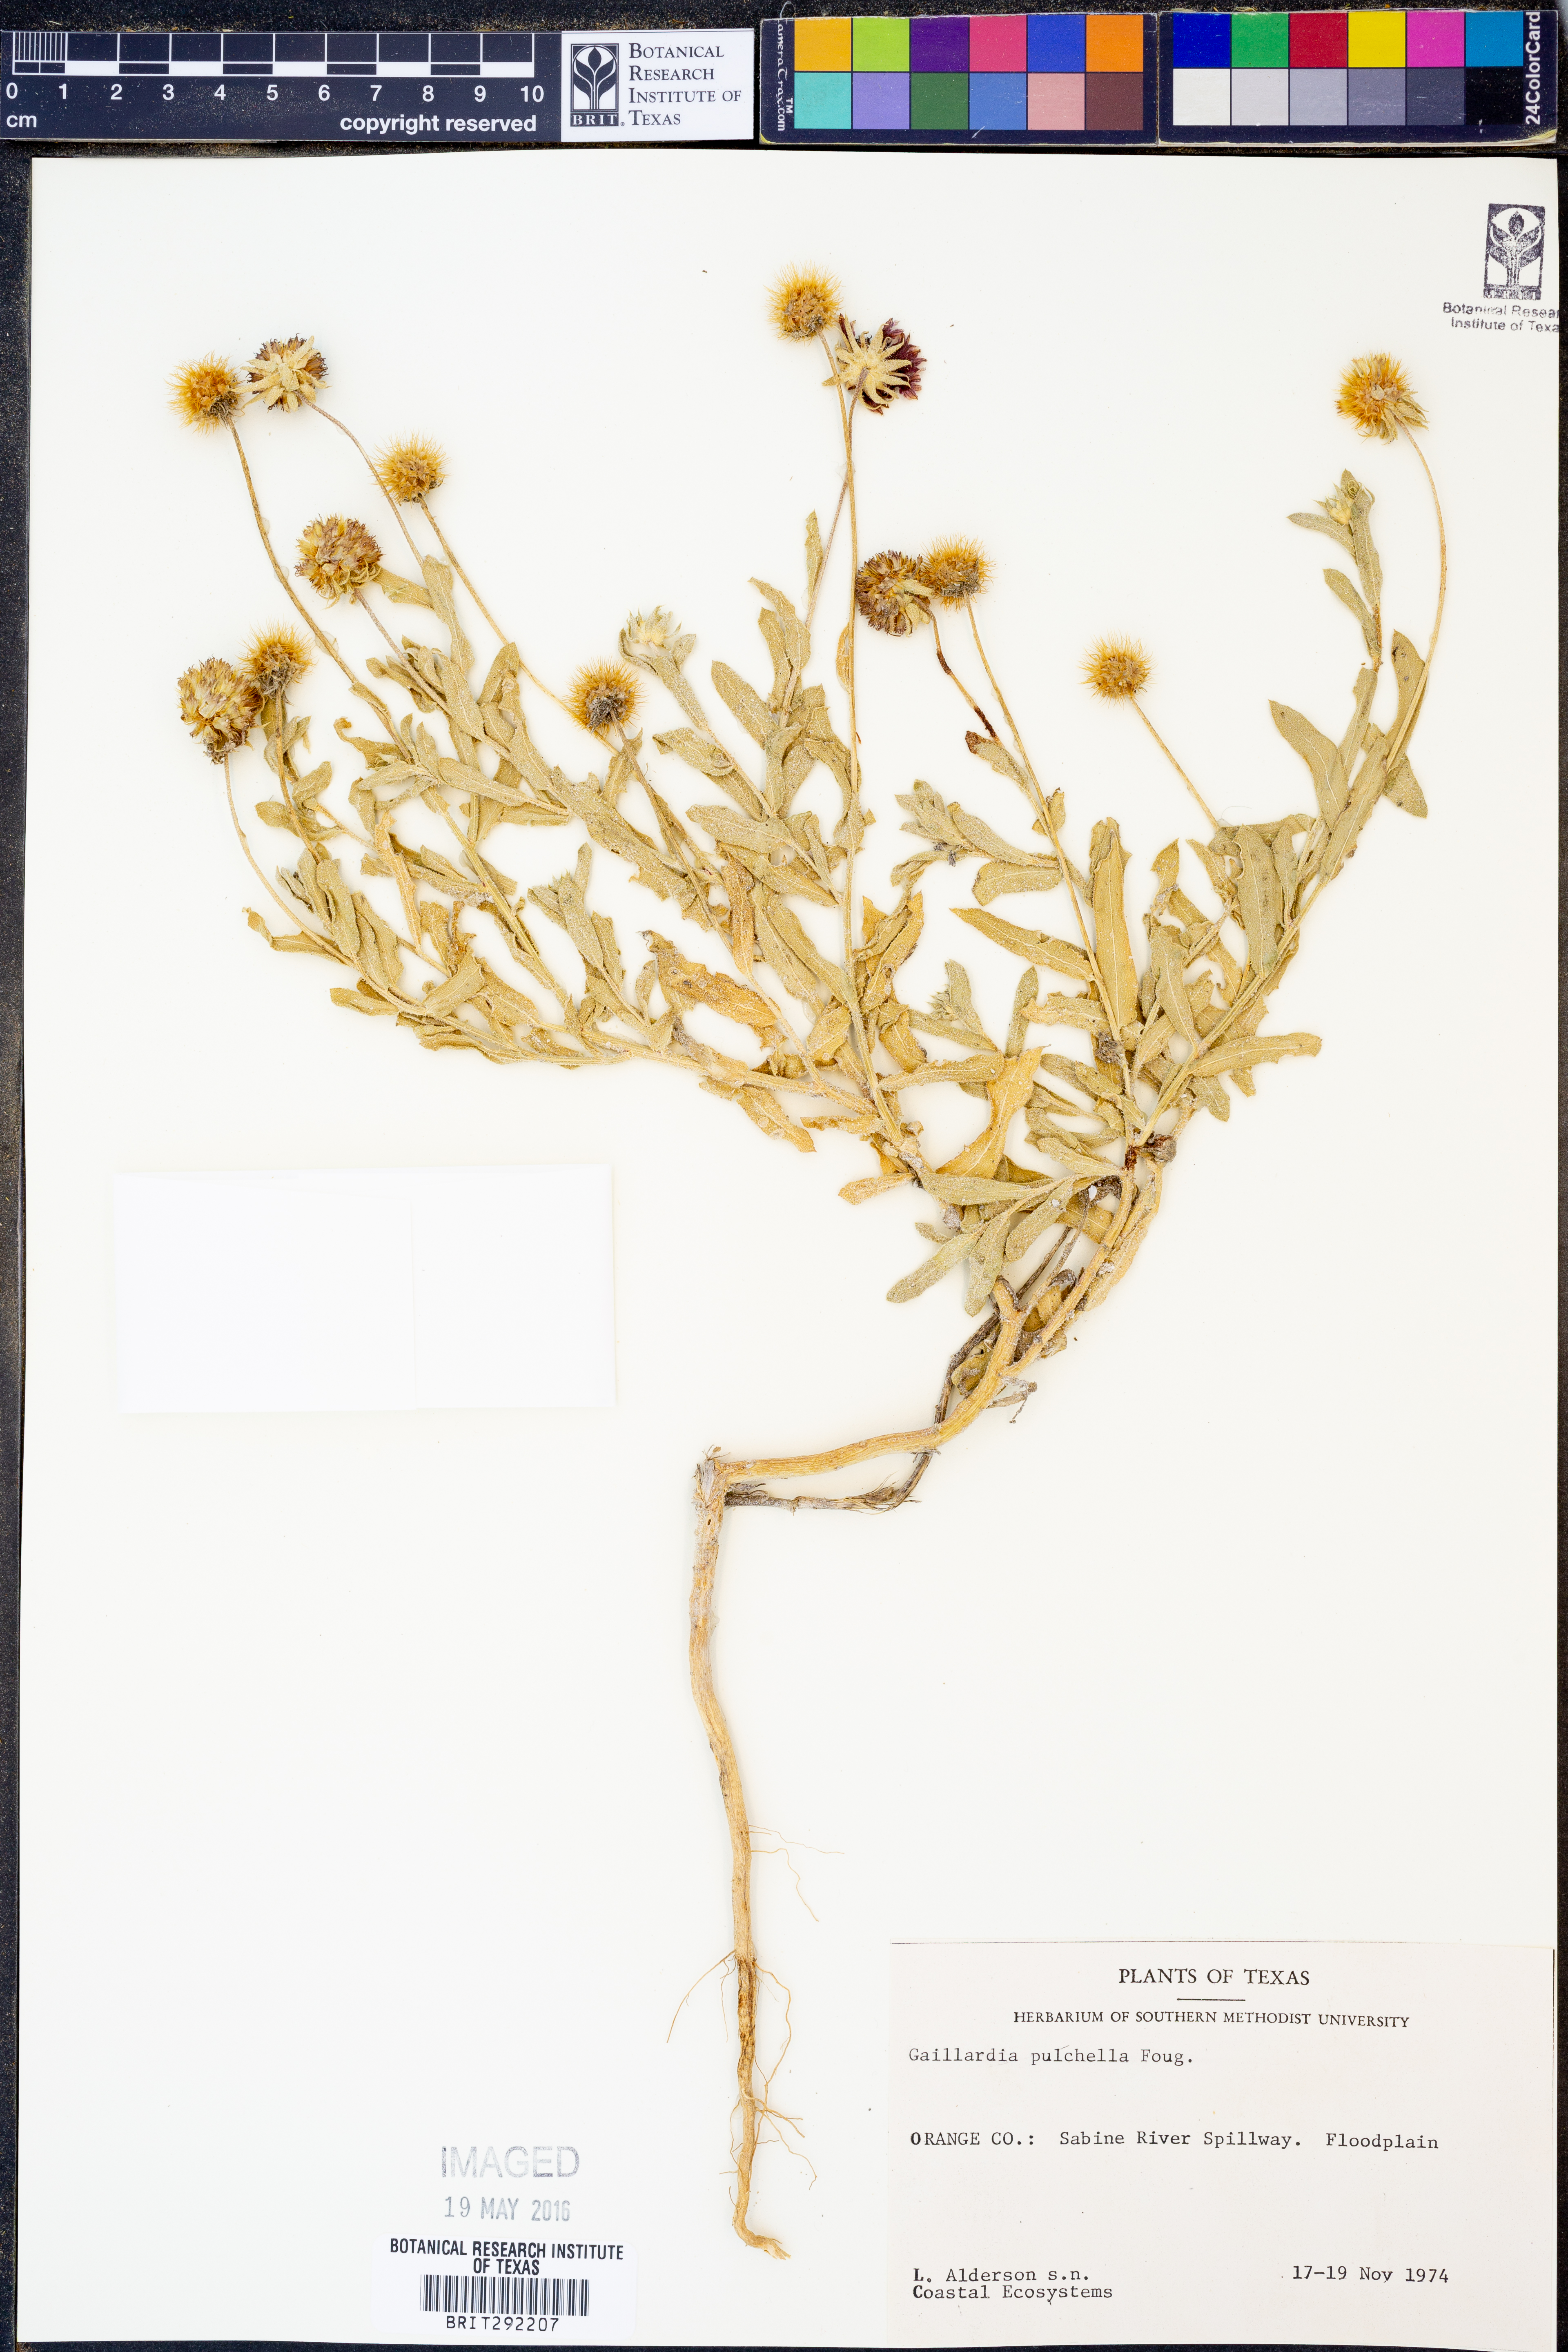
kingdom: Plantae
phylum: Tracheophyta
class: Magnoliopsida
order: Asterales
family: Asteraceae
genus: Gaillardia
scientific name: Gaillardia pulchella
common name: Firewheel
